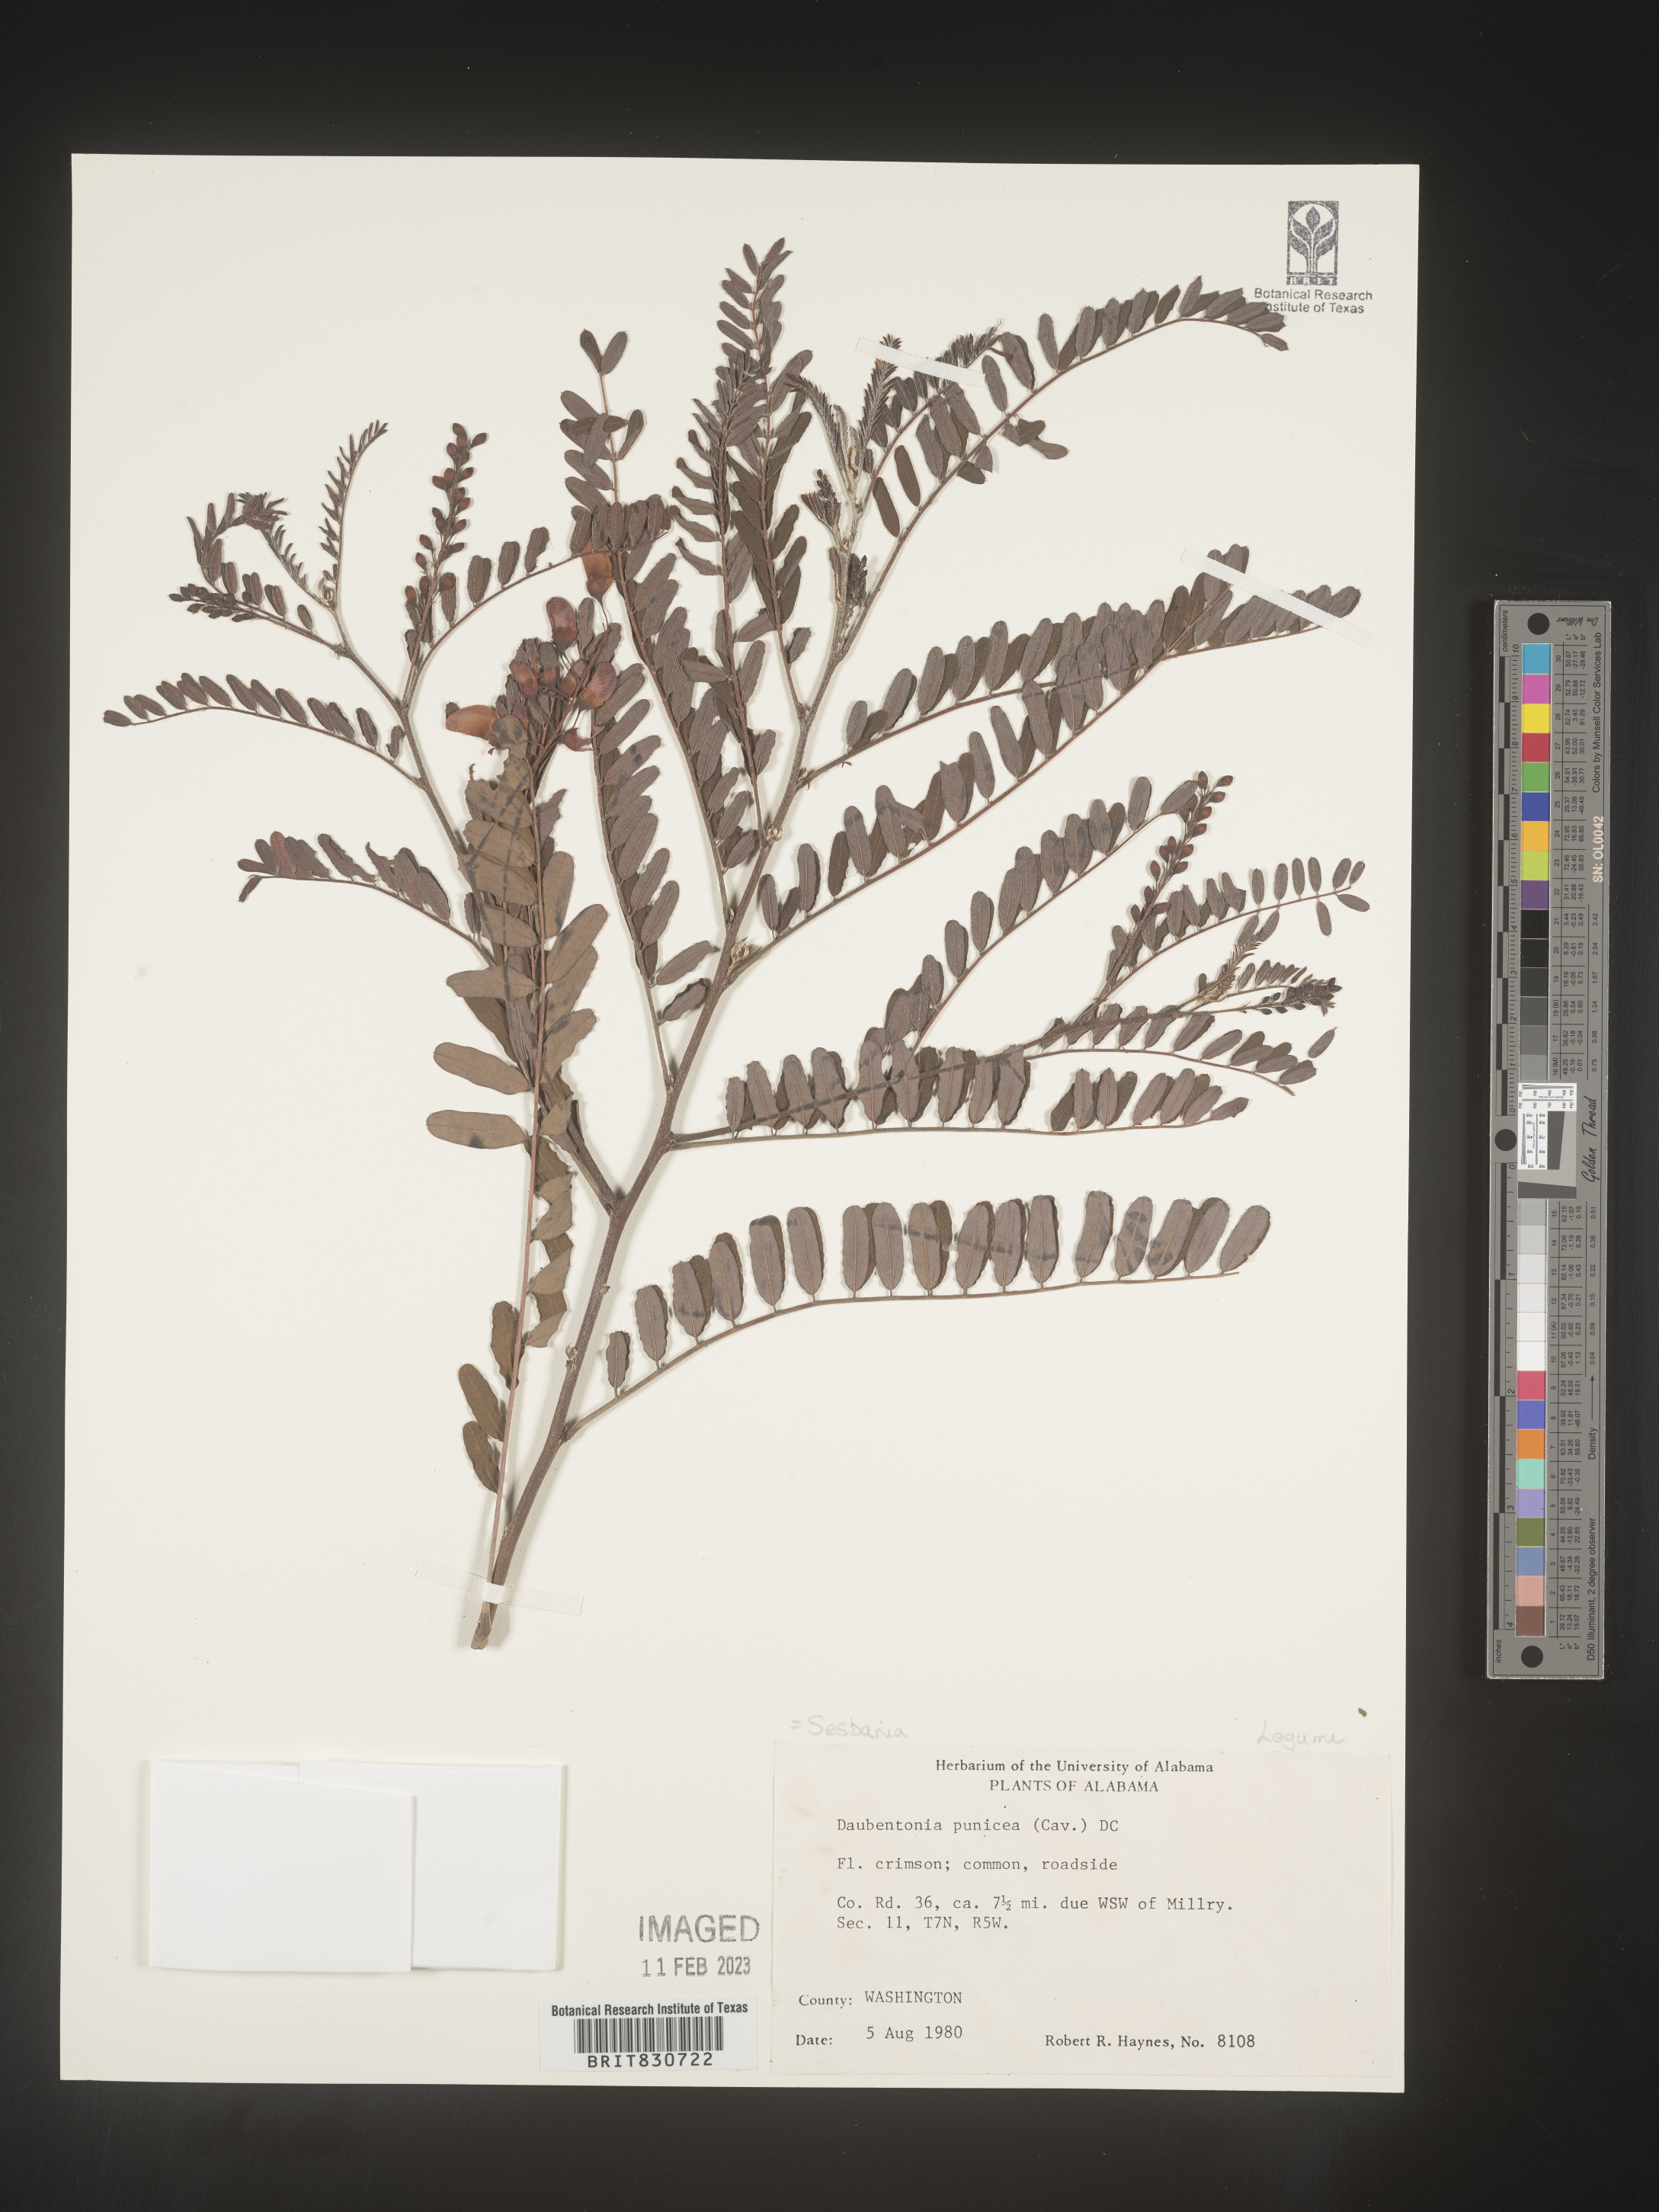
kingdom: Plantae
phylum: Tracheophyta
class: Magnoliopsida
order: Fabales
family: Fabaceae
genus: Sesbania
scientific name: Sesbania punicea
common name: Rattlebox
